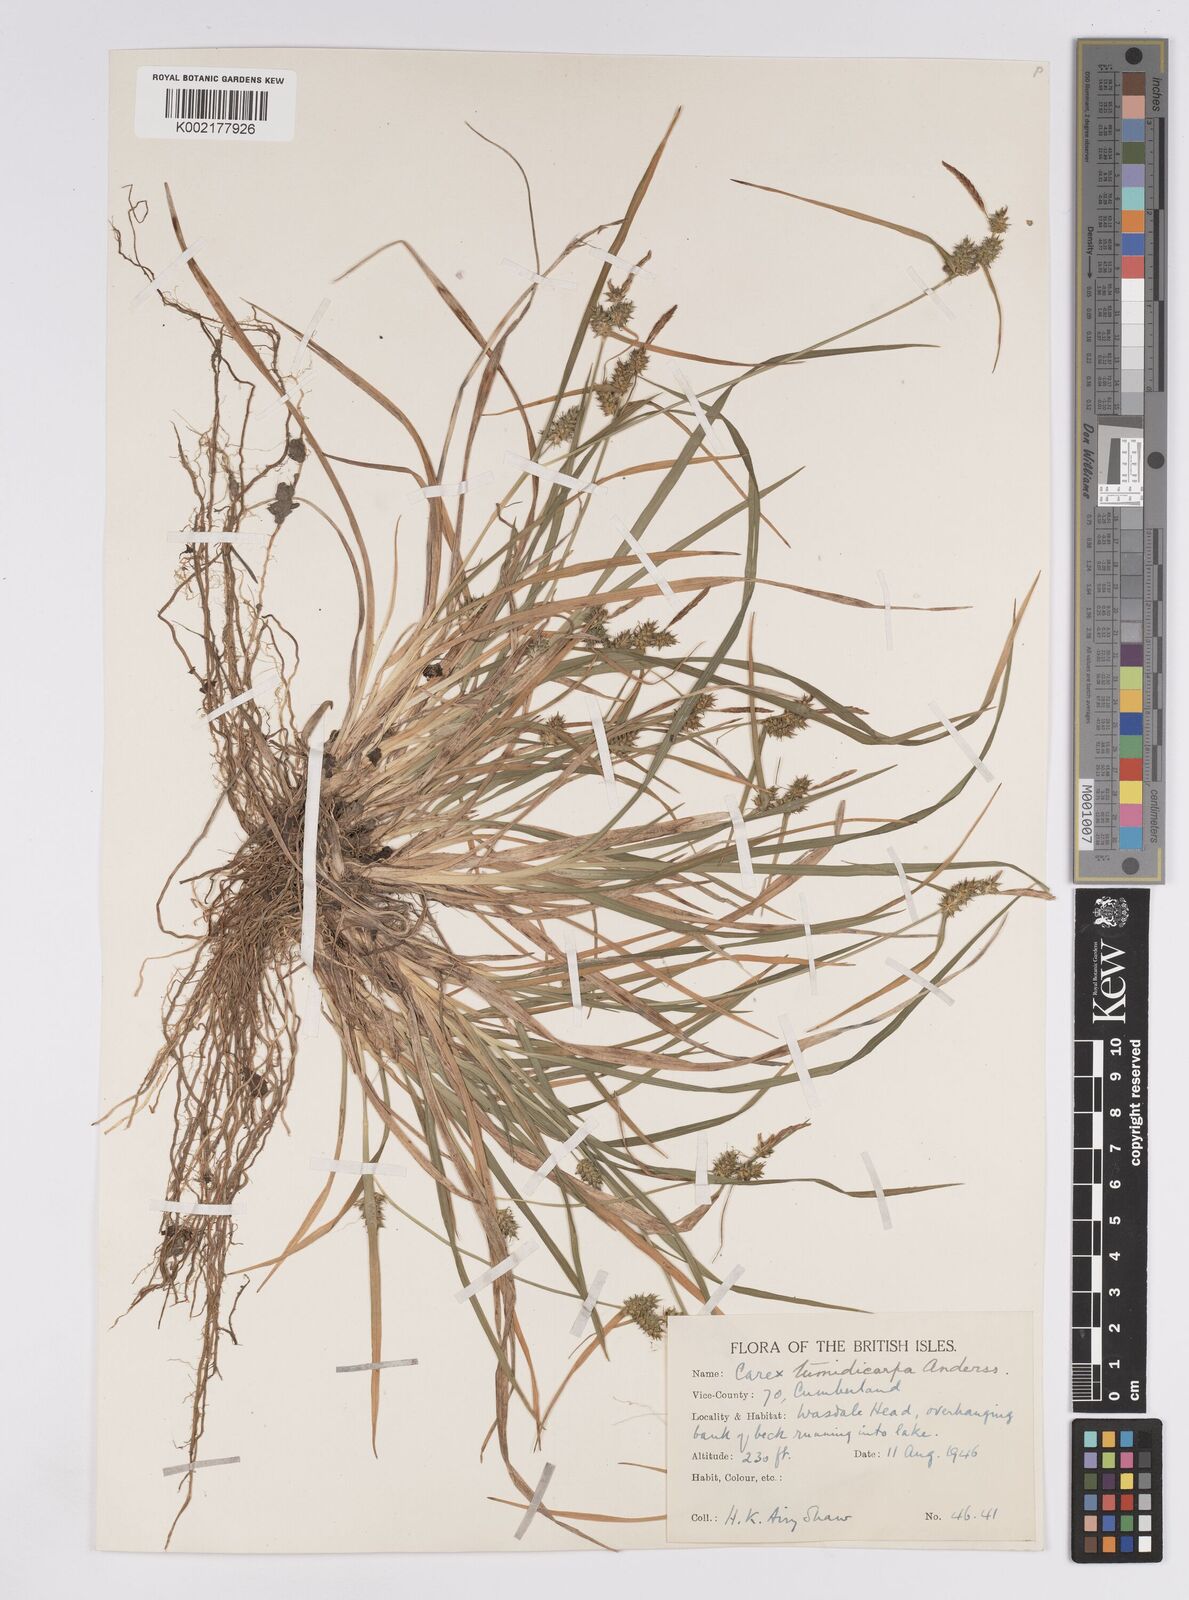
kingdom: Plantae
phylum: Tracheophyta
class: Liliopsida
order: Poales
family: Cyperaceae
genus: Carex
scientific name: Carex demissa
